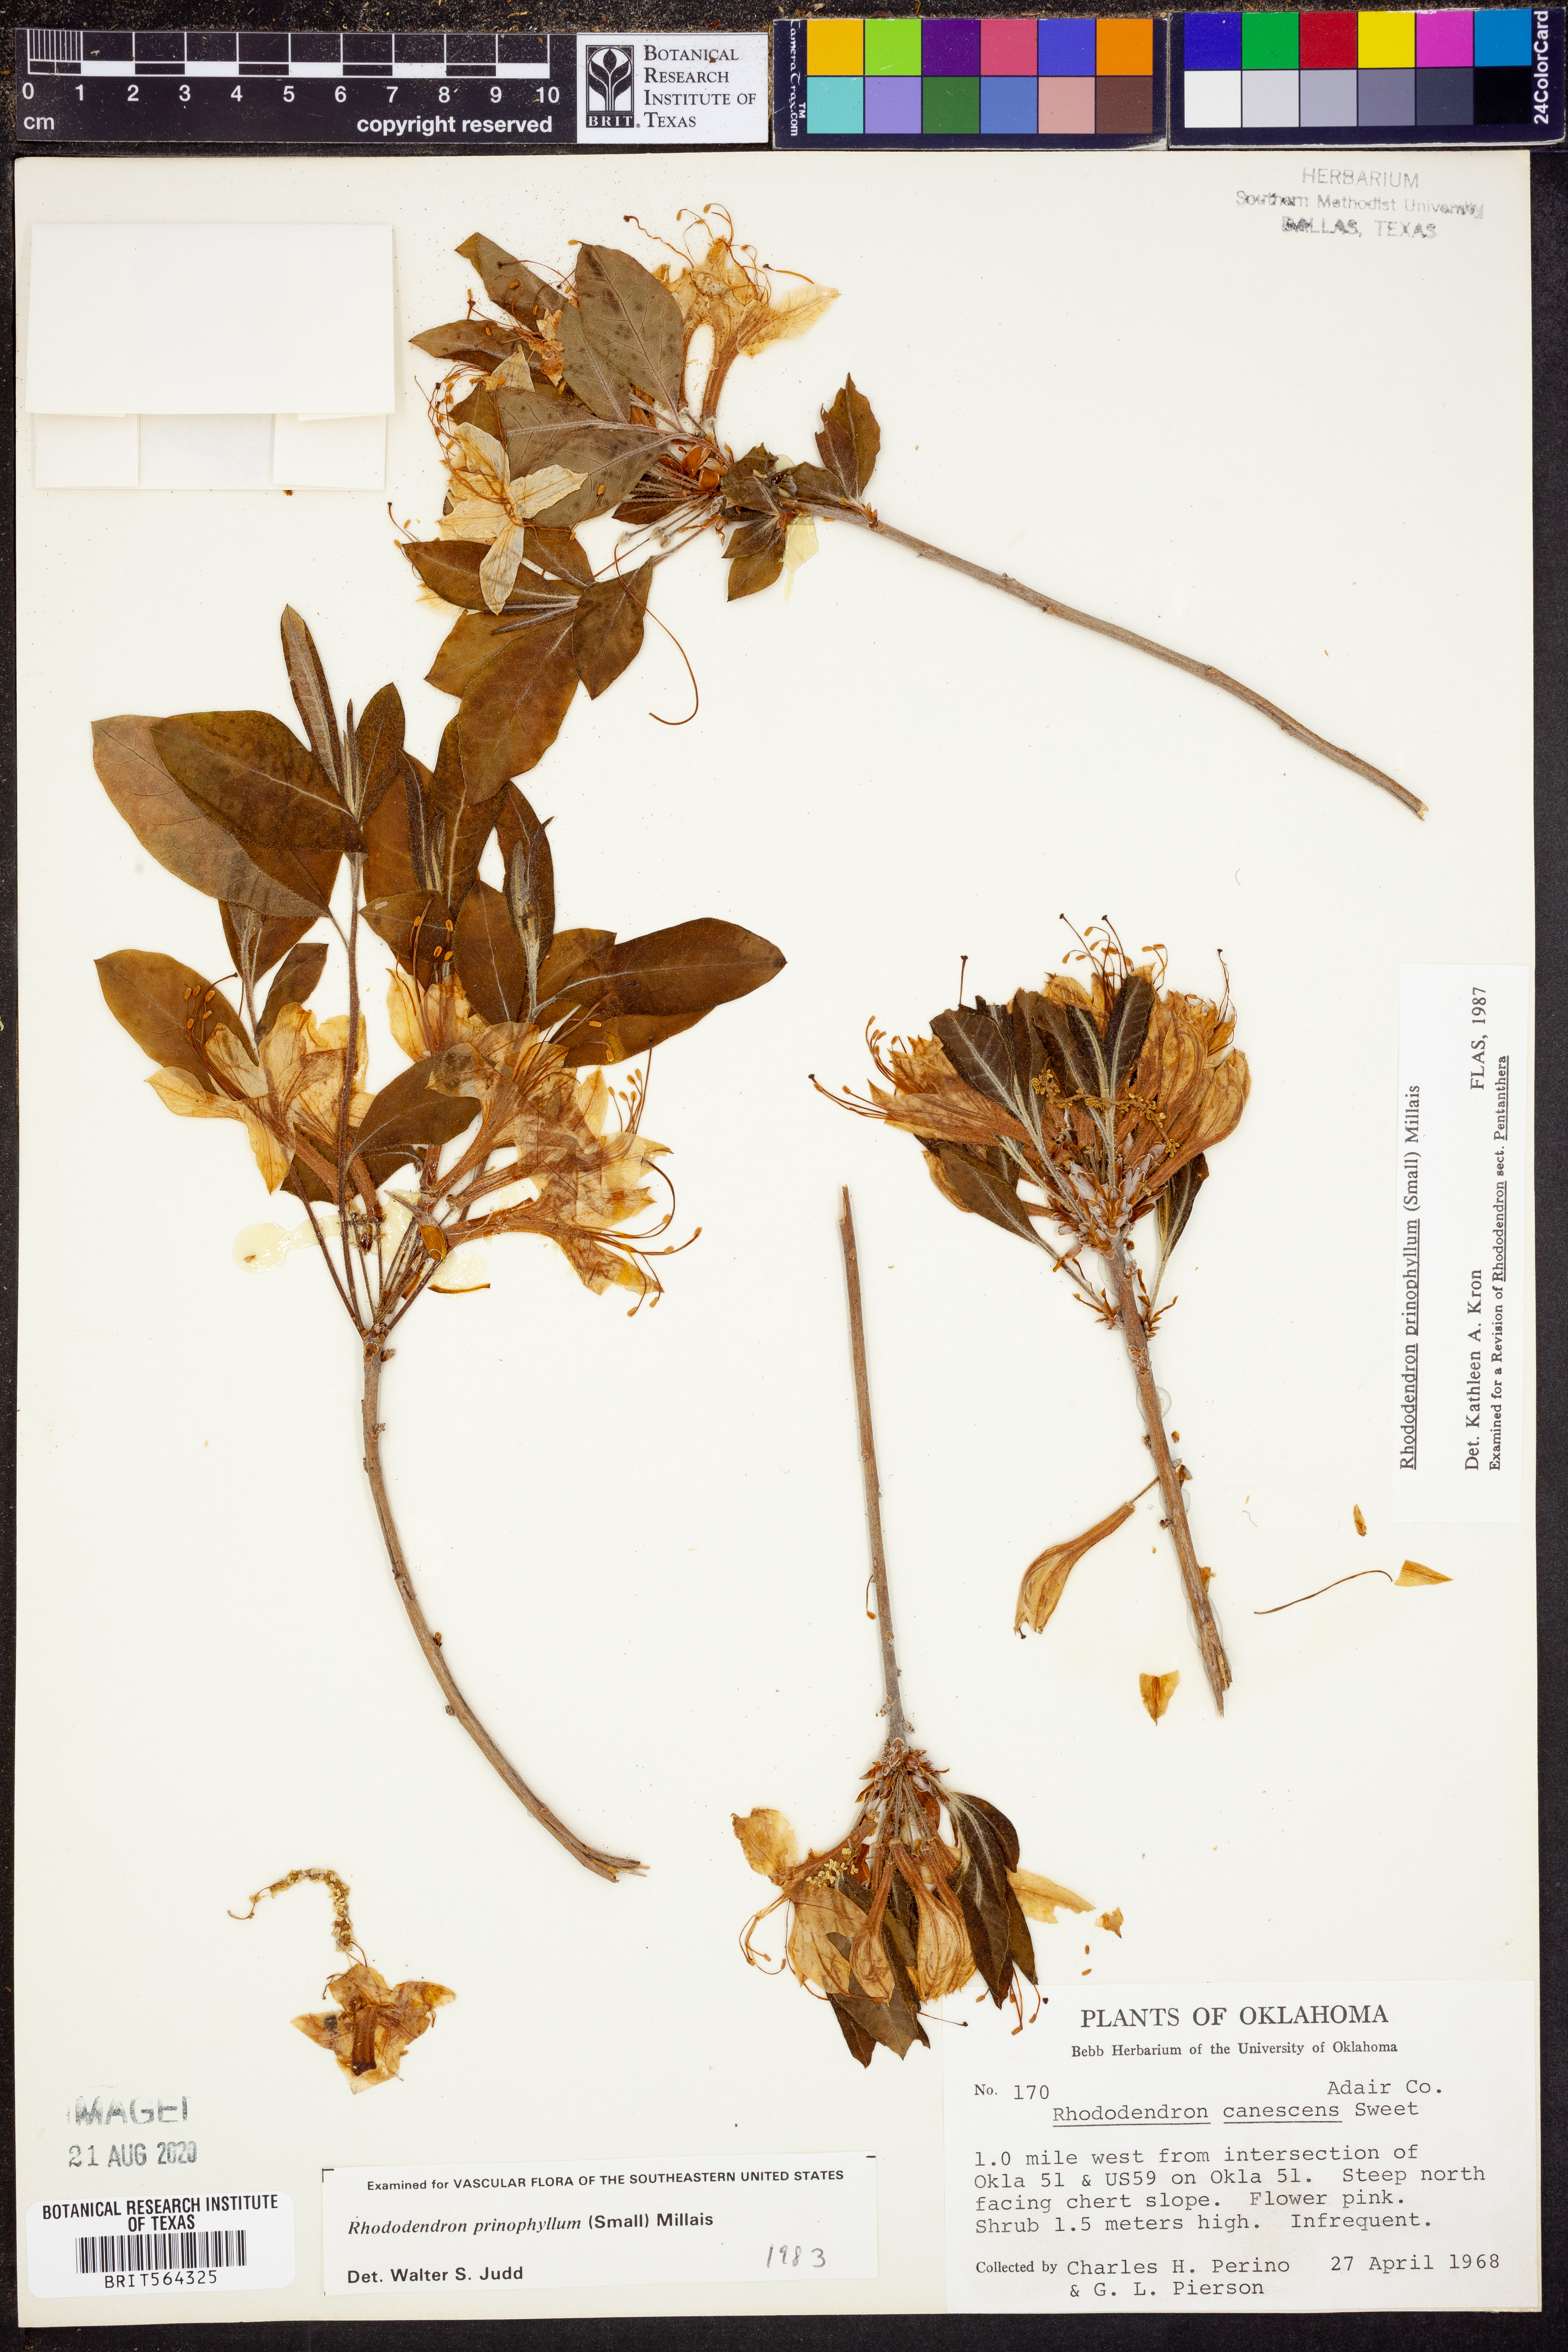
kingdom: Plantae
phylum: Tracheophyta
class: Magnoliopsida
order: Ericales
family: Ericaceae
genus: Rhododendron
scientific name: Rhododendron roseum
